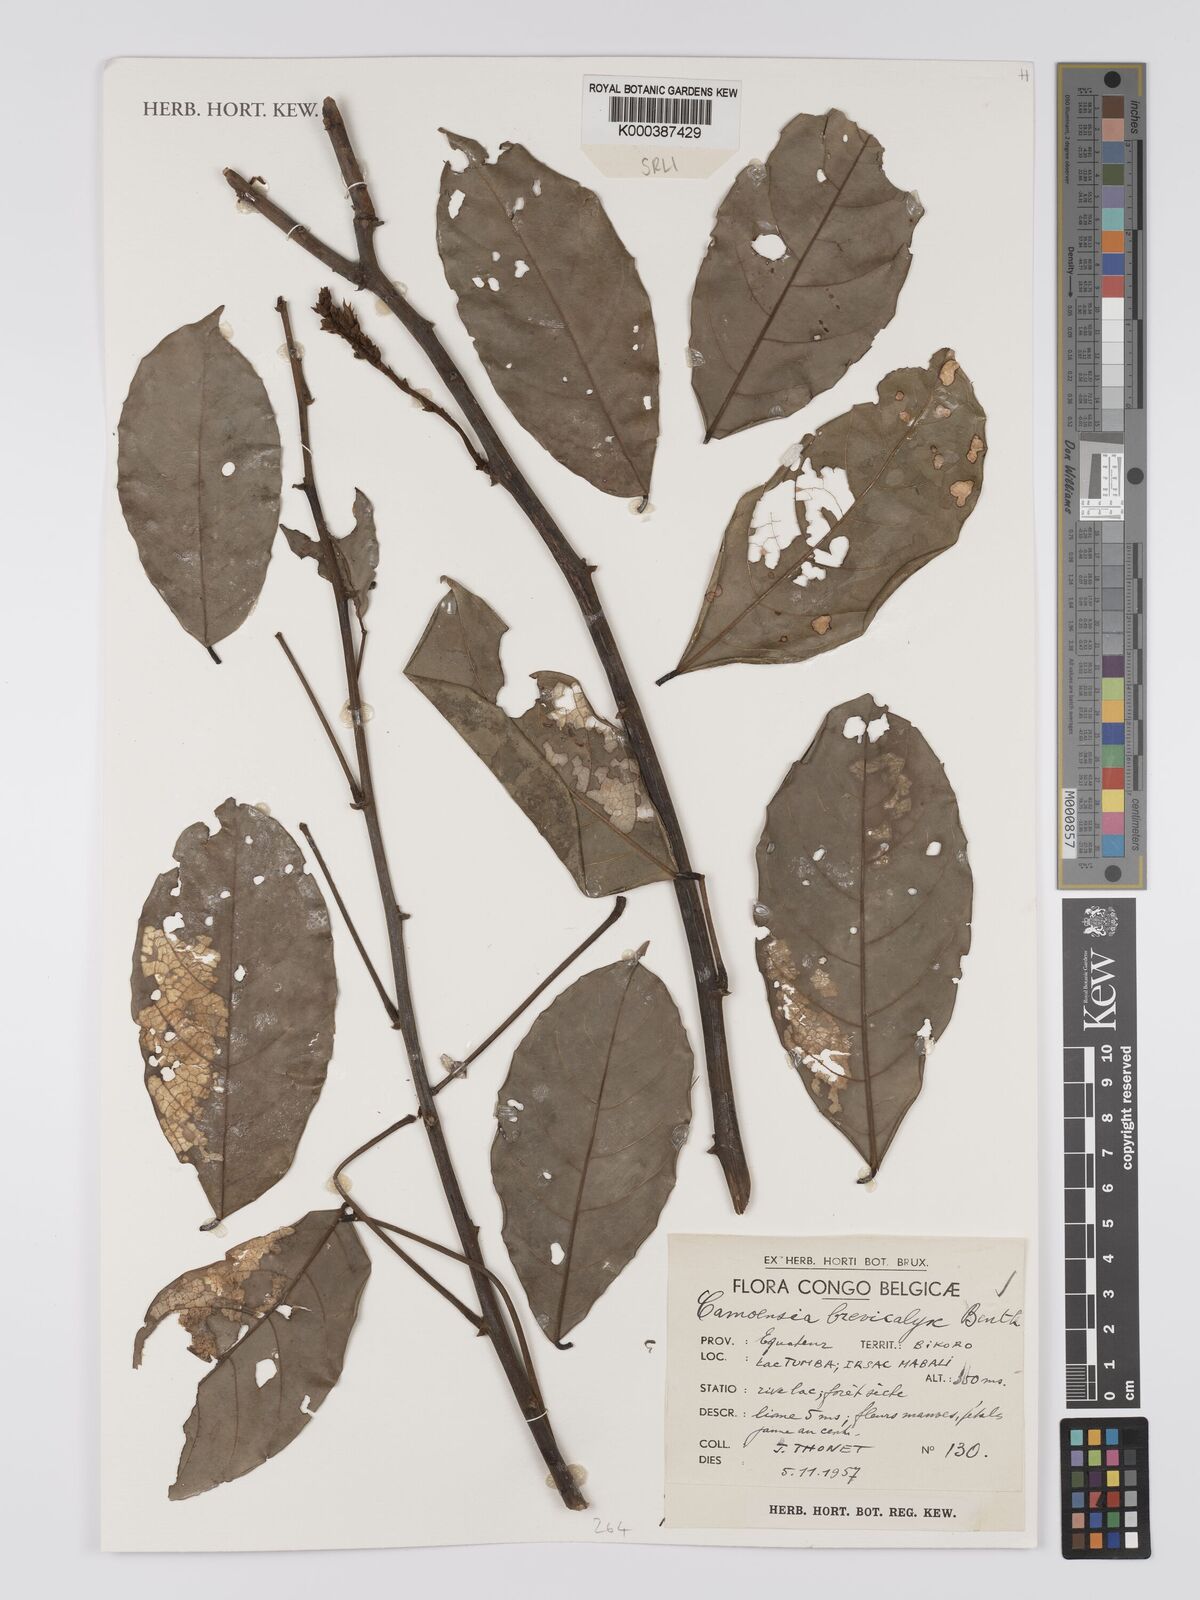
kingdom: Plantae
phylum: Tracheophyta
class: Magnoliopsida
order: Fabales
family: Fabaceae
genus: Camoensia
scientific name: Camoensia brevicalyx
